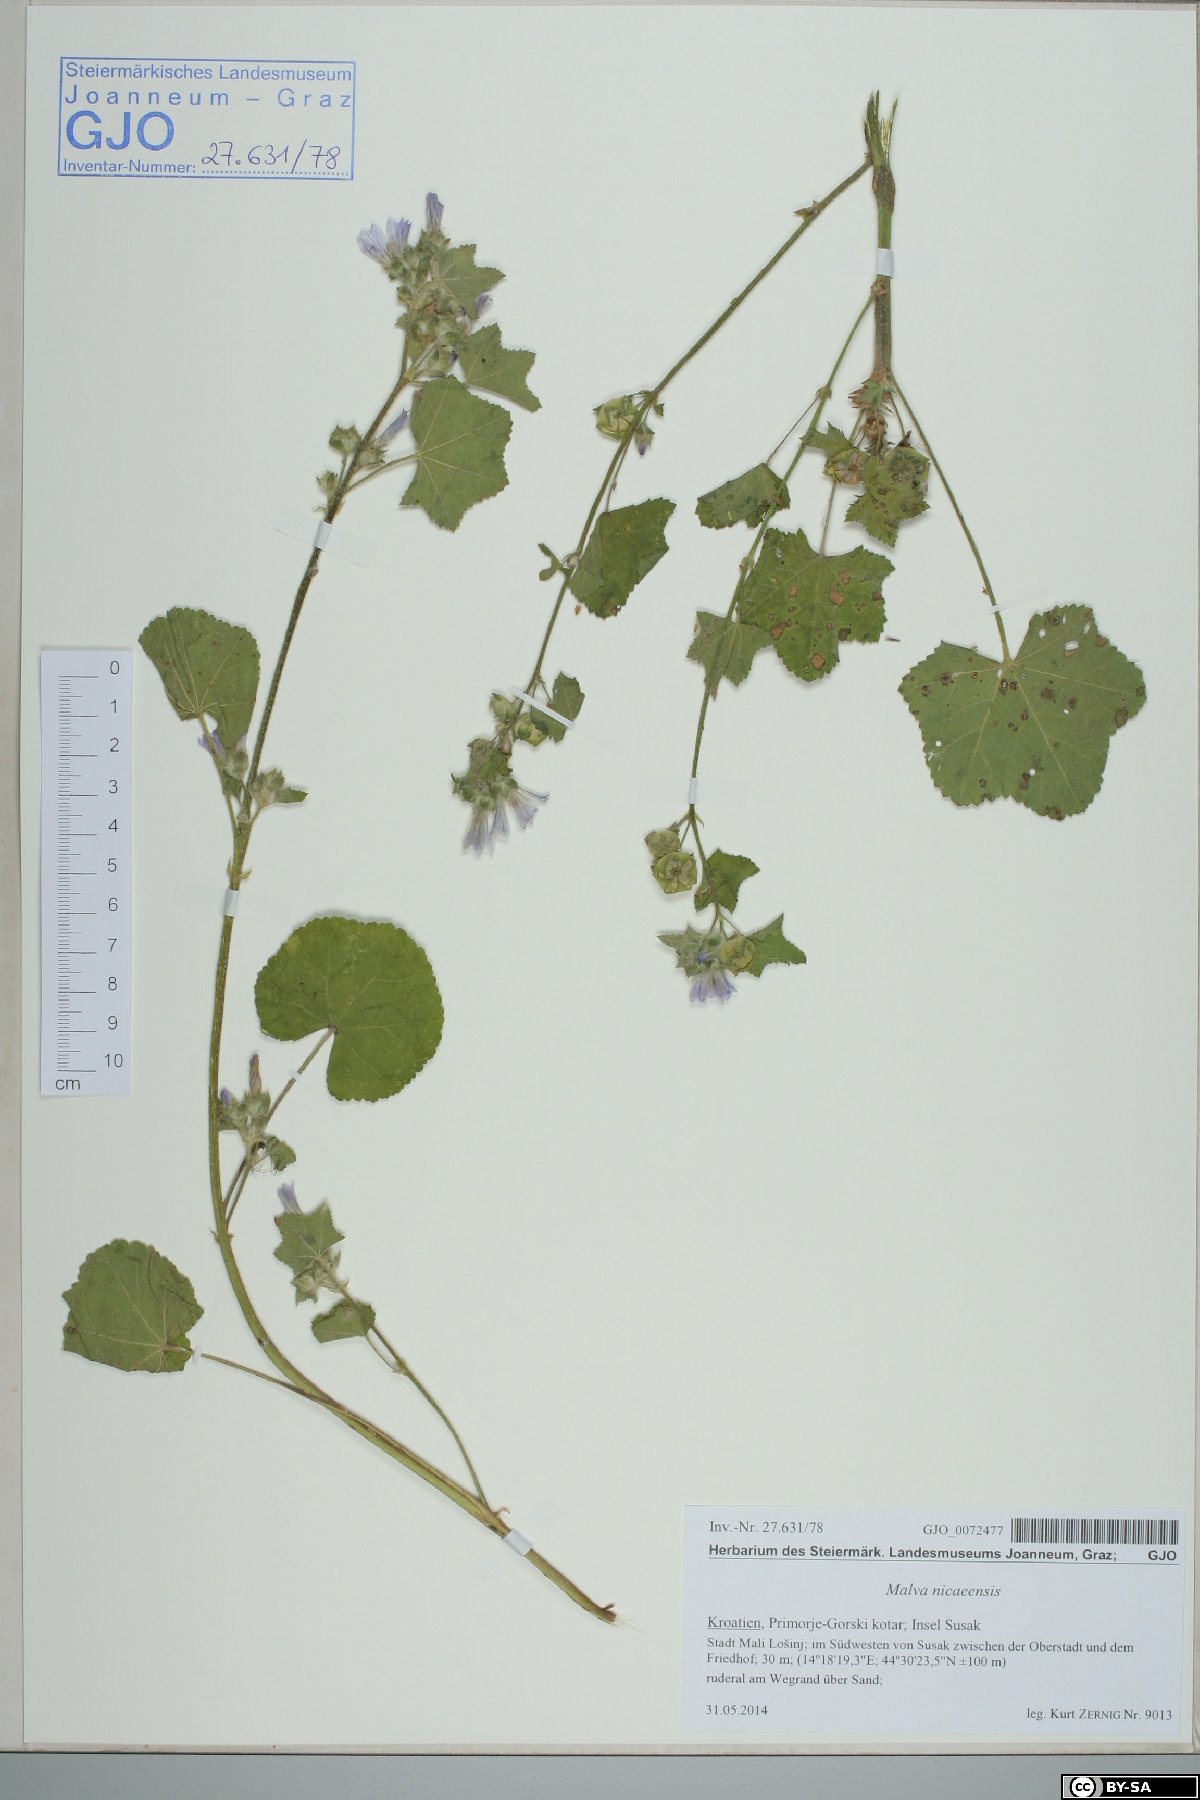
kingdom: Plantae
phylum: Tracheophyta
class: Magnoliopsida
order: Malvales
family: Malvaceae
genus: Malva
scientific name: Malva nicaeensis
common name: French mallow
